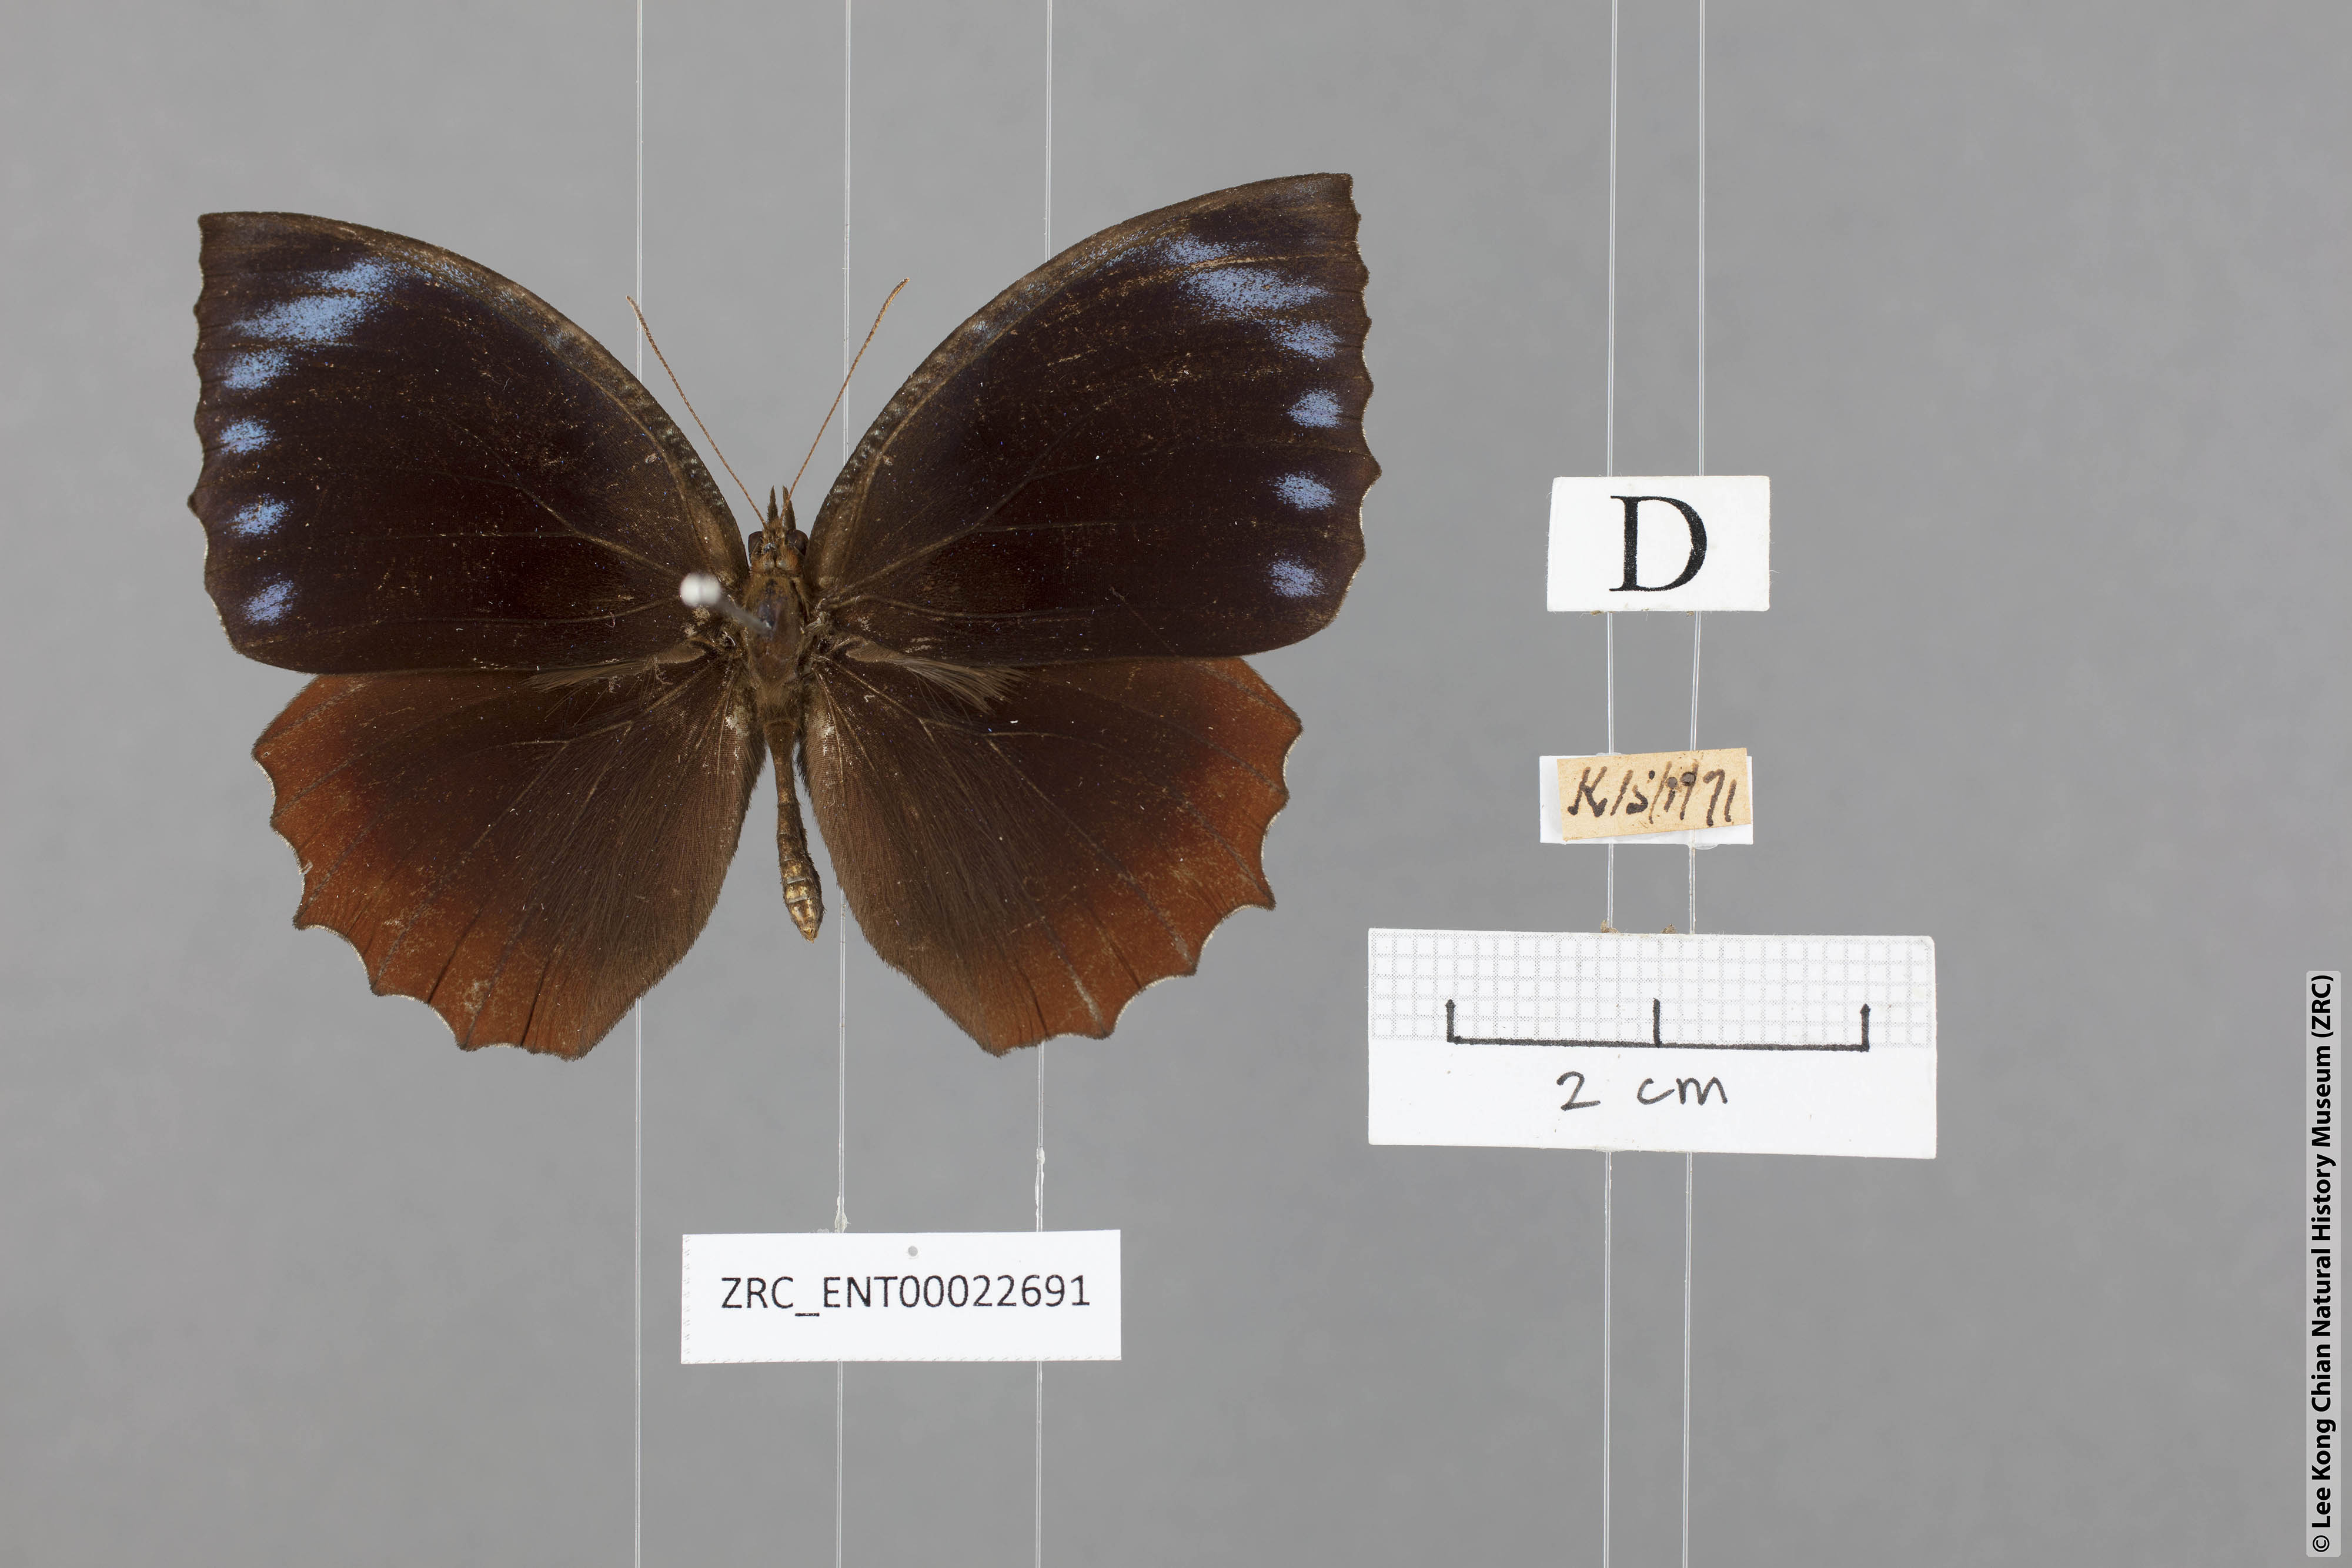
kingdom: Animalia
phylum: Arthropoda
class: Insecta
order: Lepidoptera
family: Nymphalidae
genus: Elymnias
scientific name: Elymnias hypermnestra
